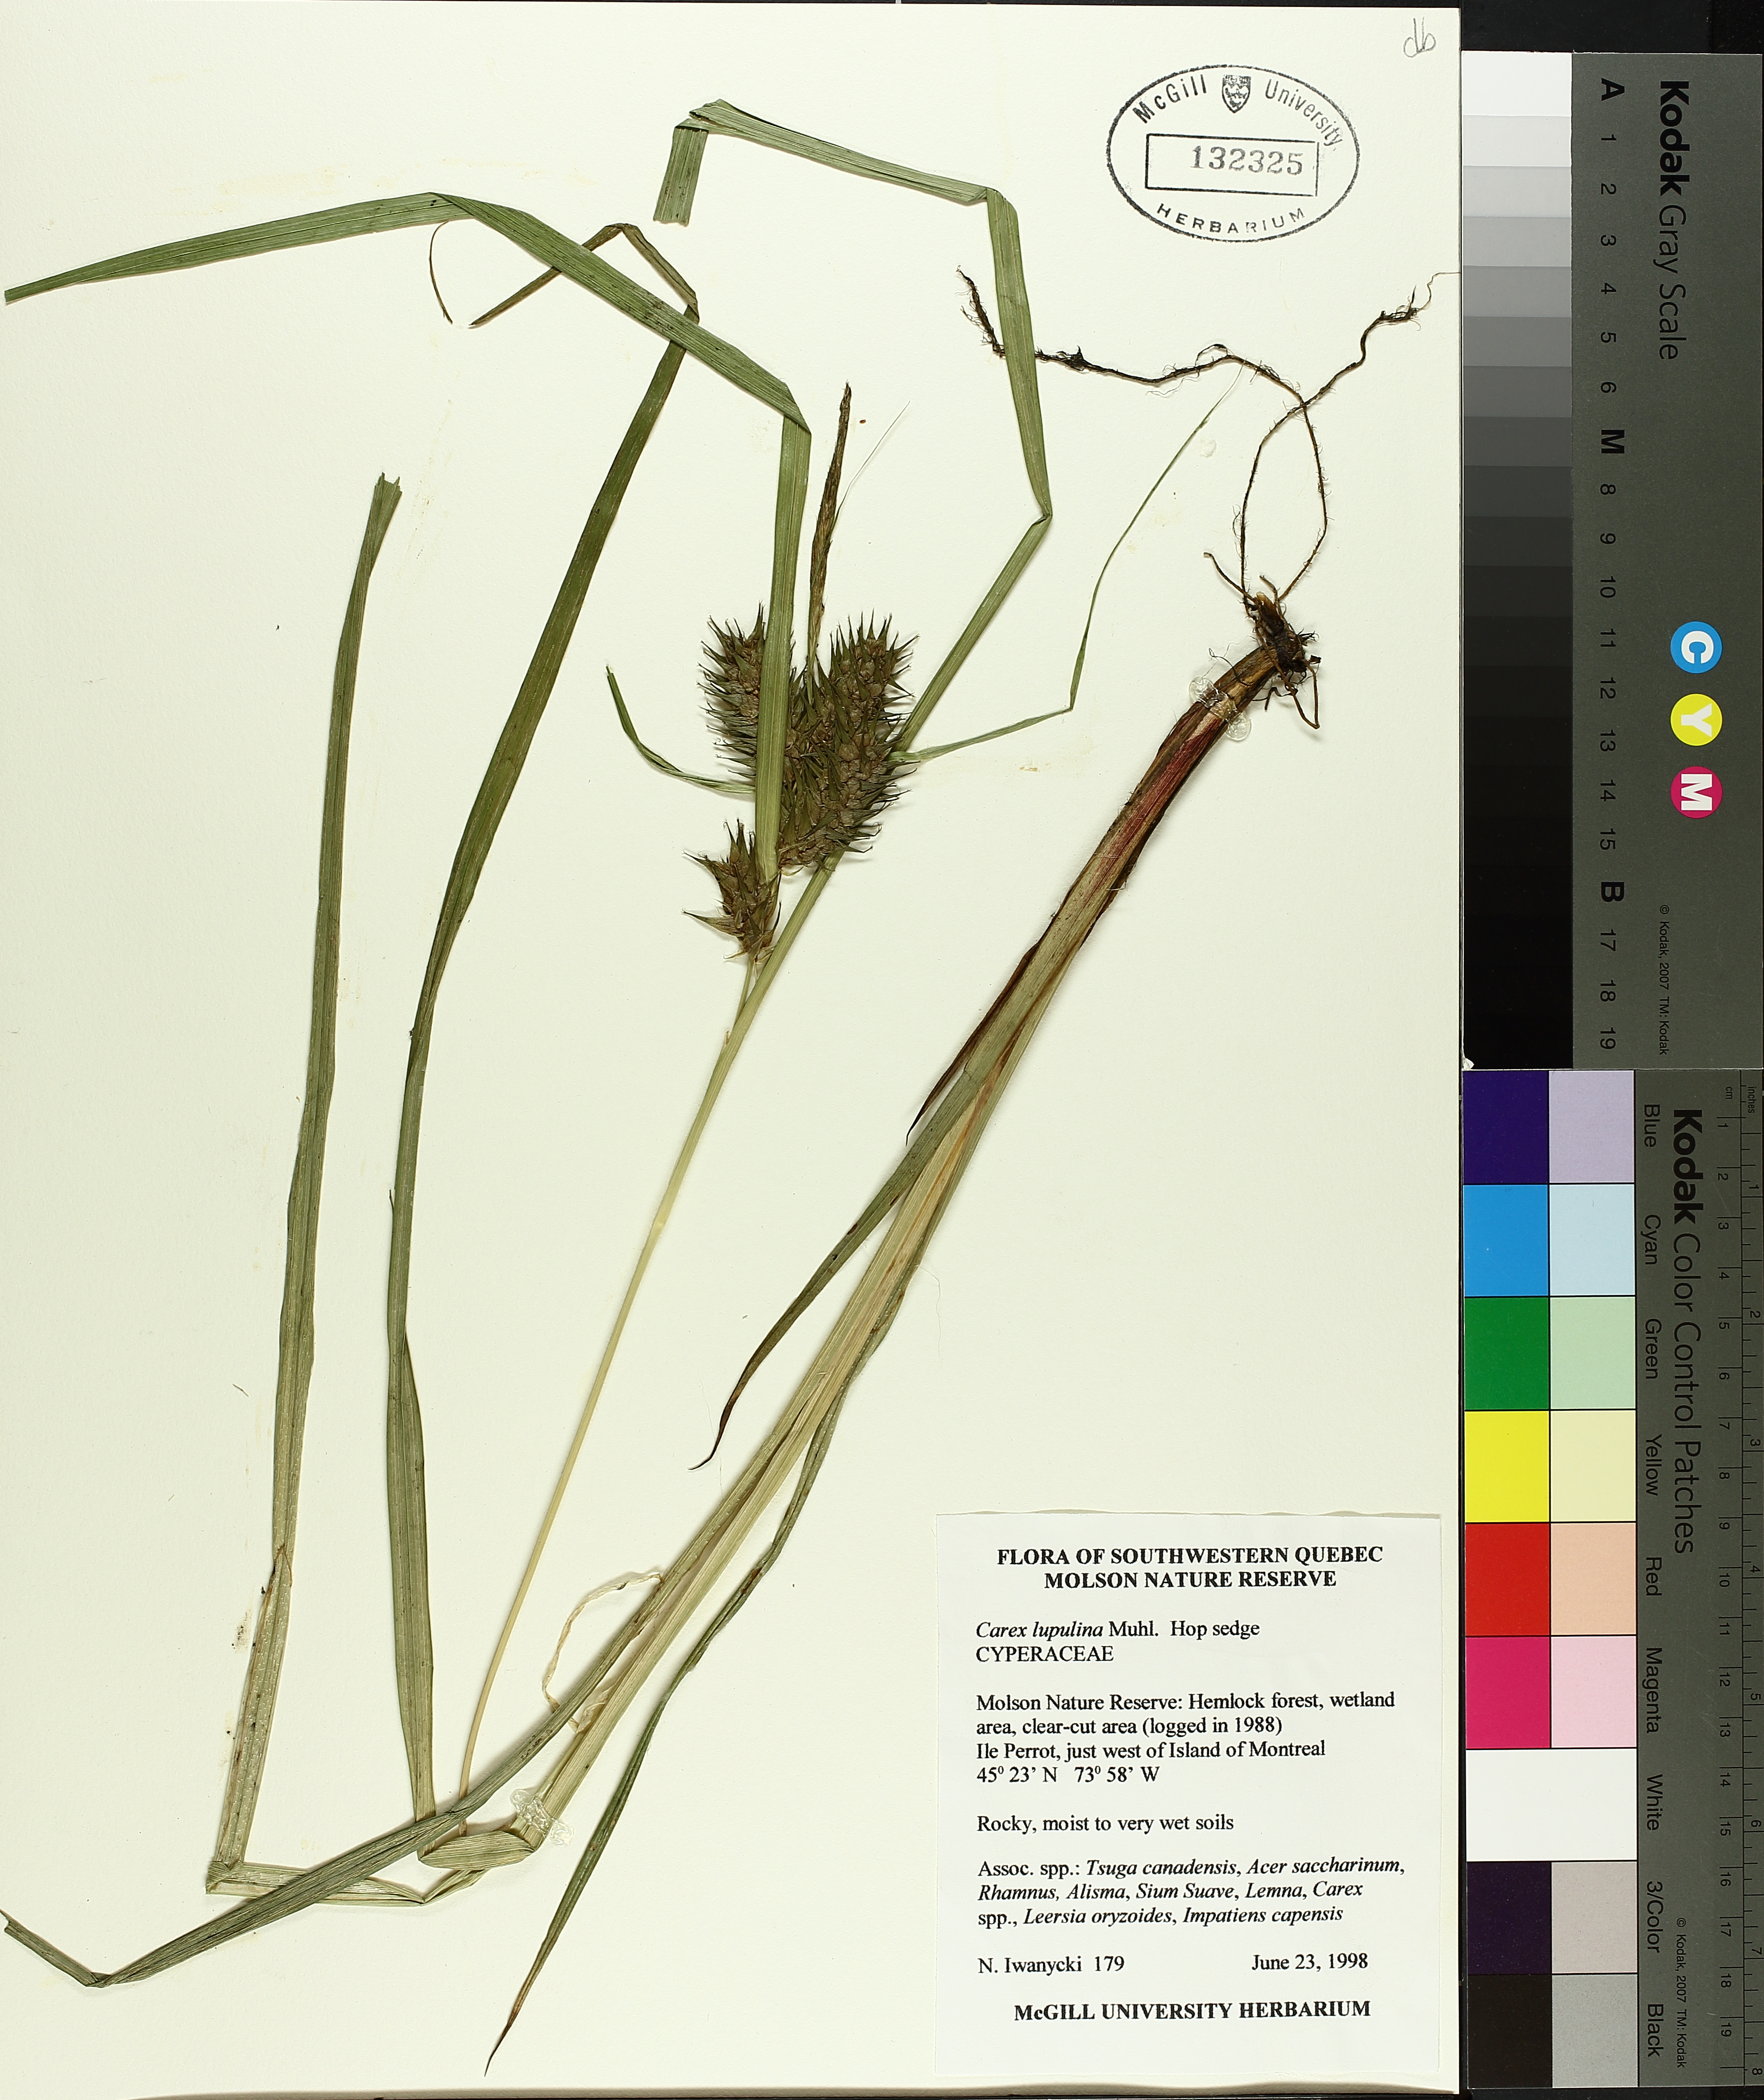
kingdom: Plantae
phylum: Tracheophyta
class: Liliopsida
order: Poales
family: Cyperaceae
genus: Carex
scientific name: Carex lupulina
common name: Hop sedge
